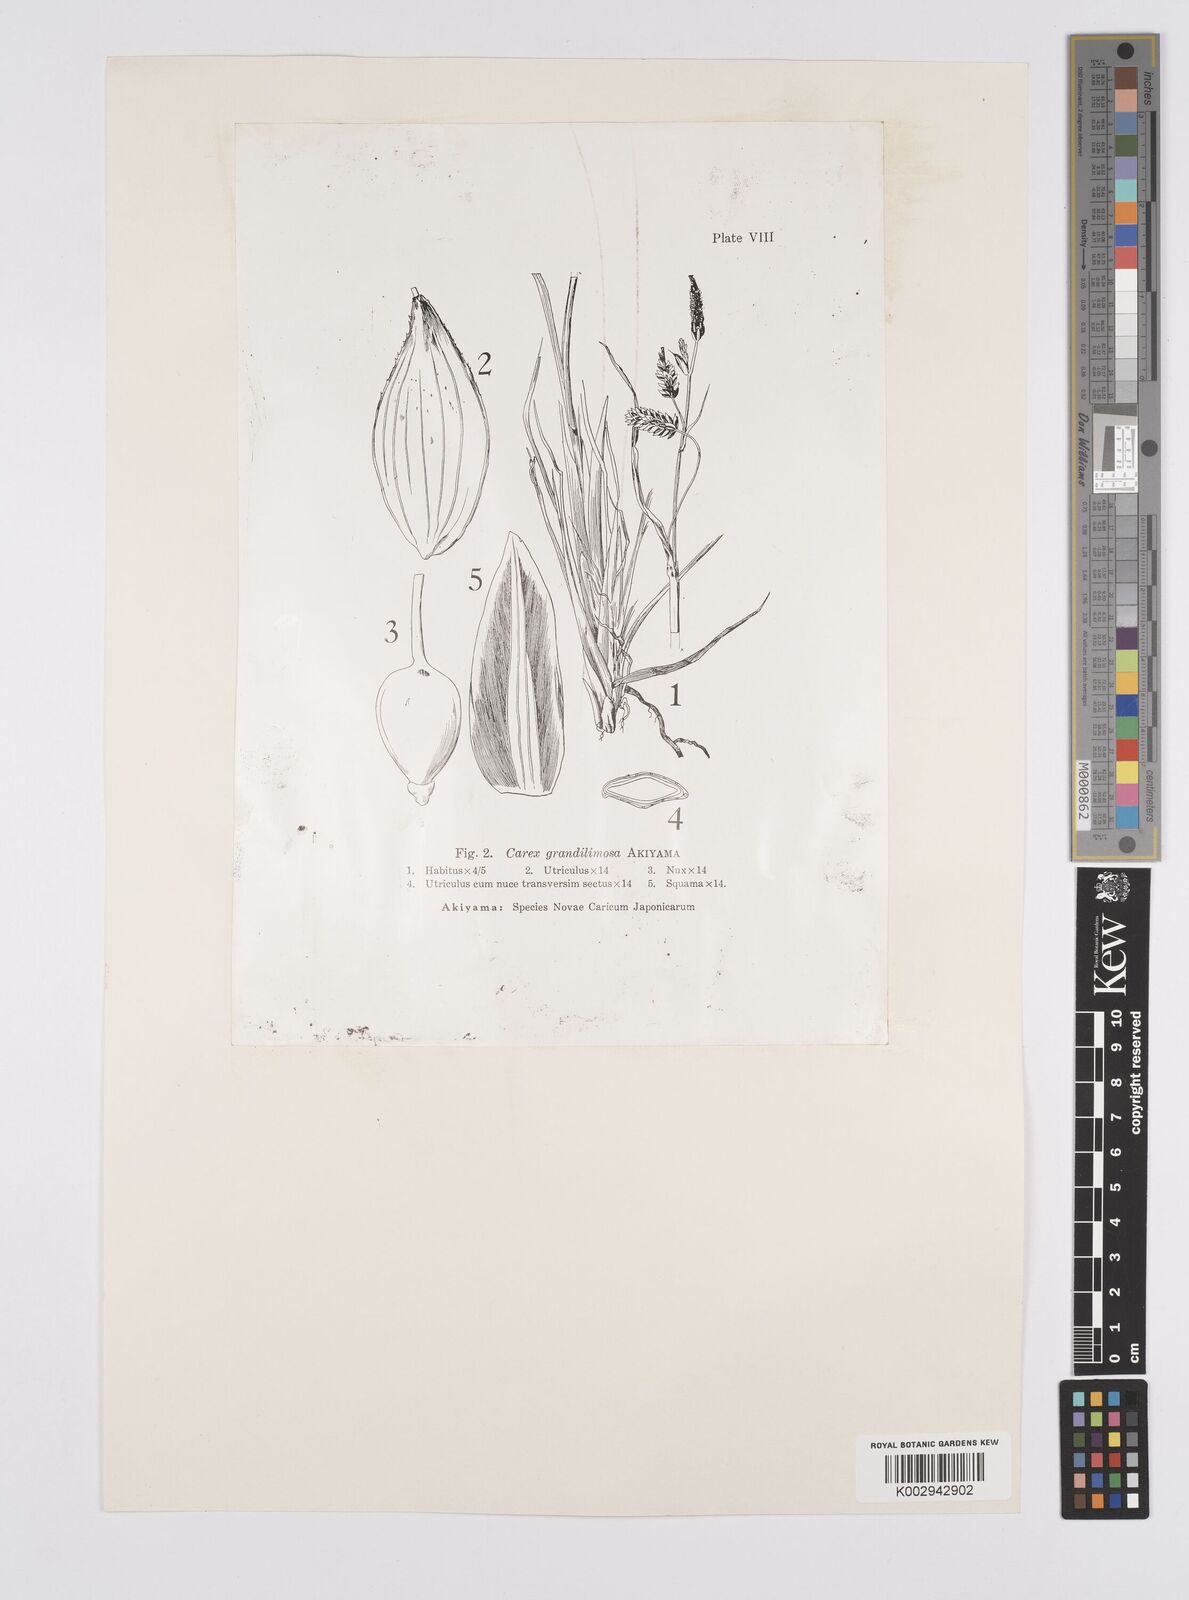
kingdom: Plantae
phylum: Tracheophyta
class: Liliopsida
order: Poales
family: Cyperaceae
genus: Carex
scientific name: Carex middendorffii
